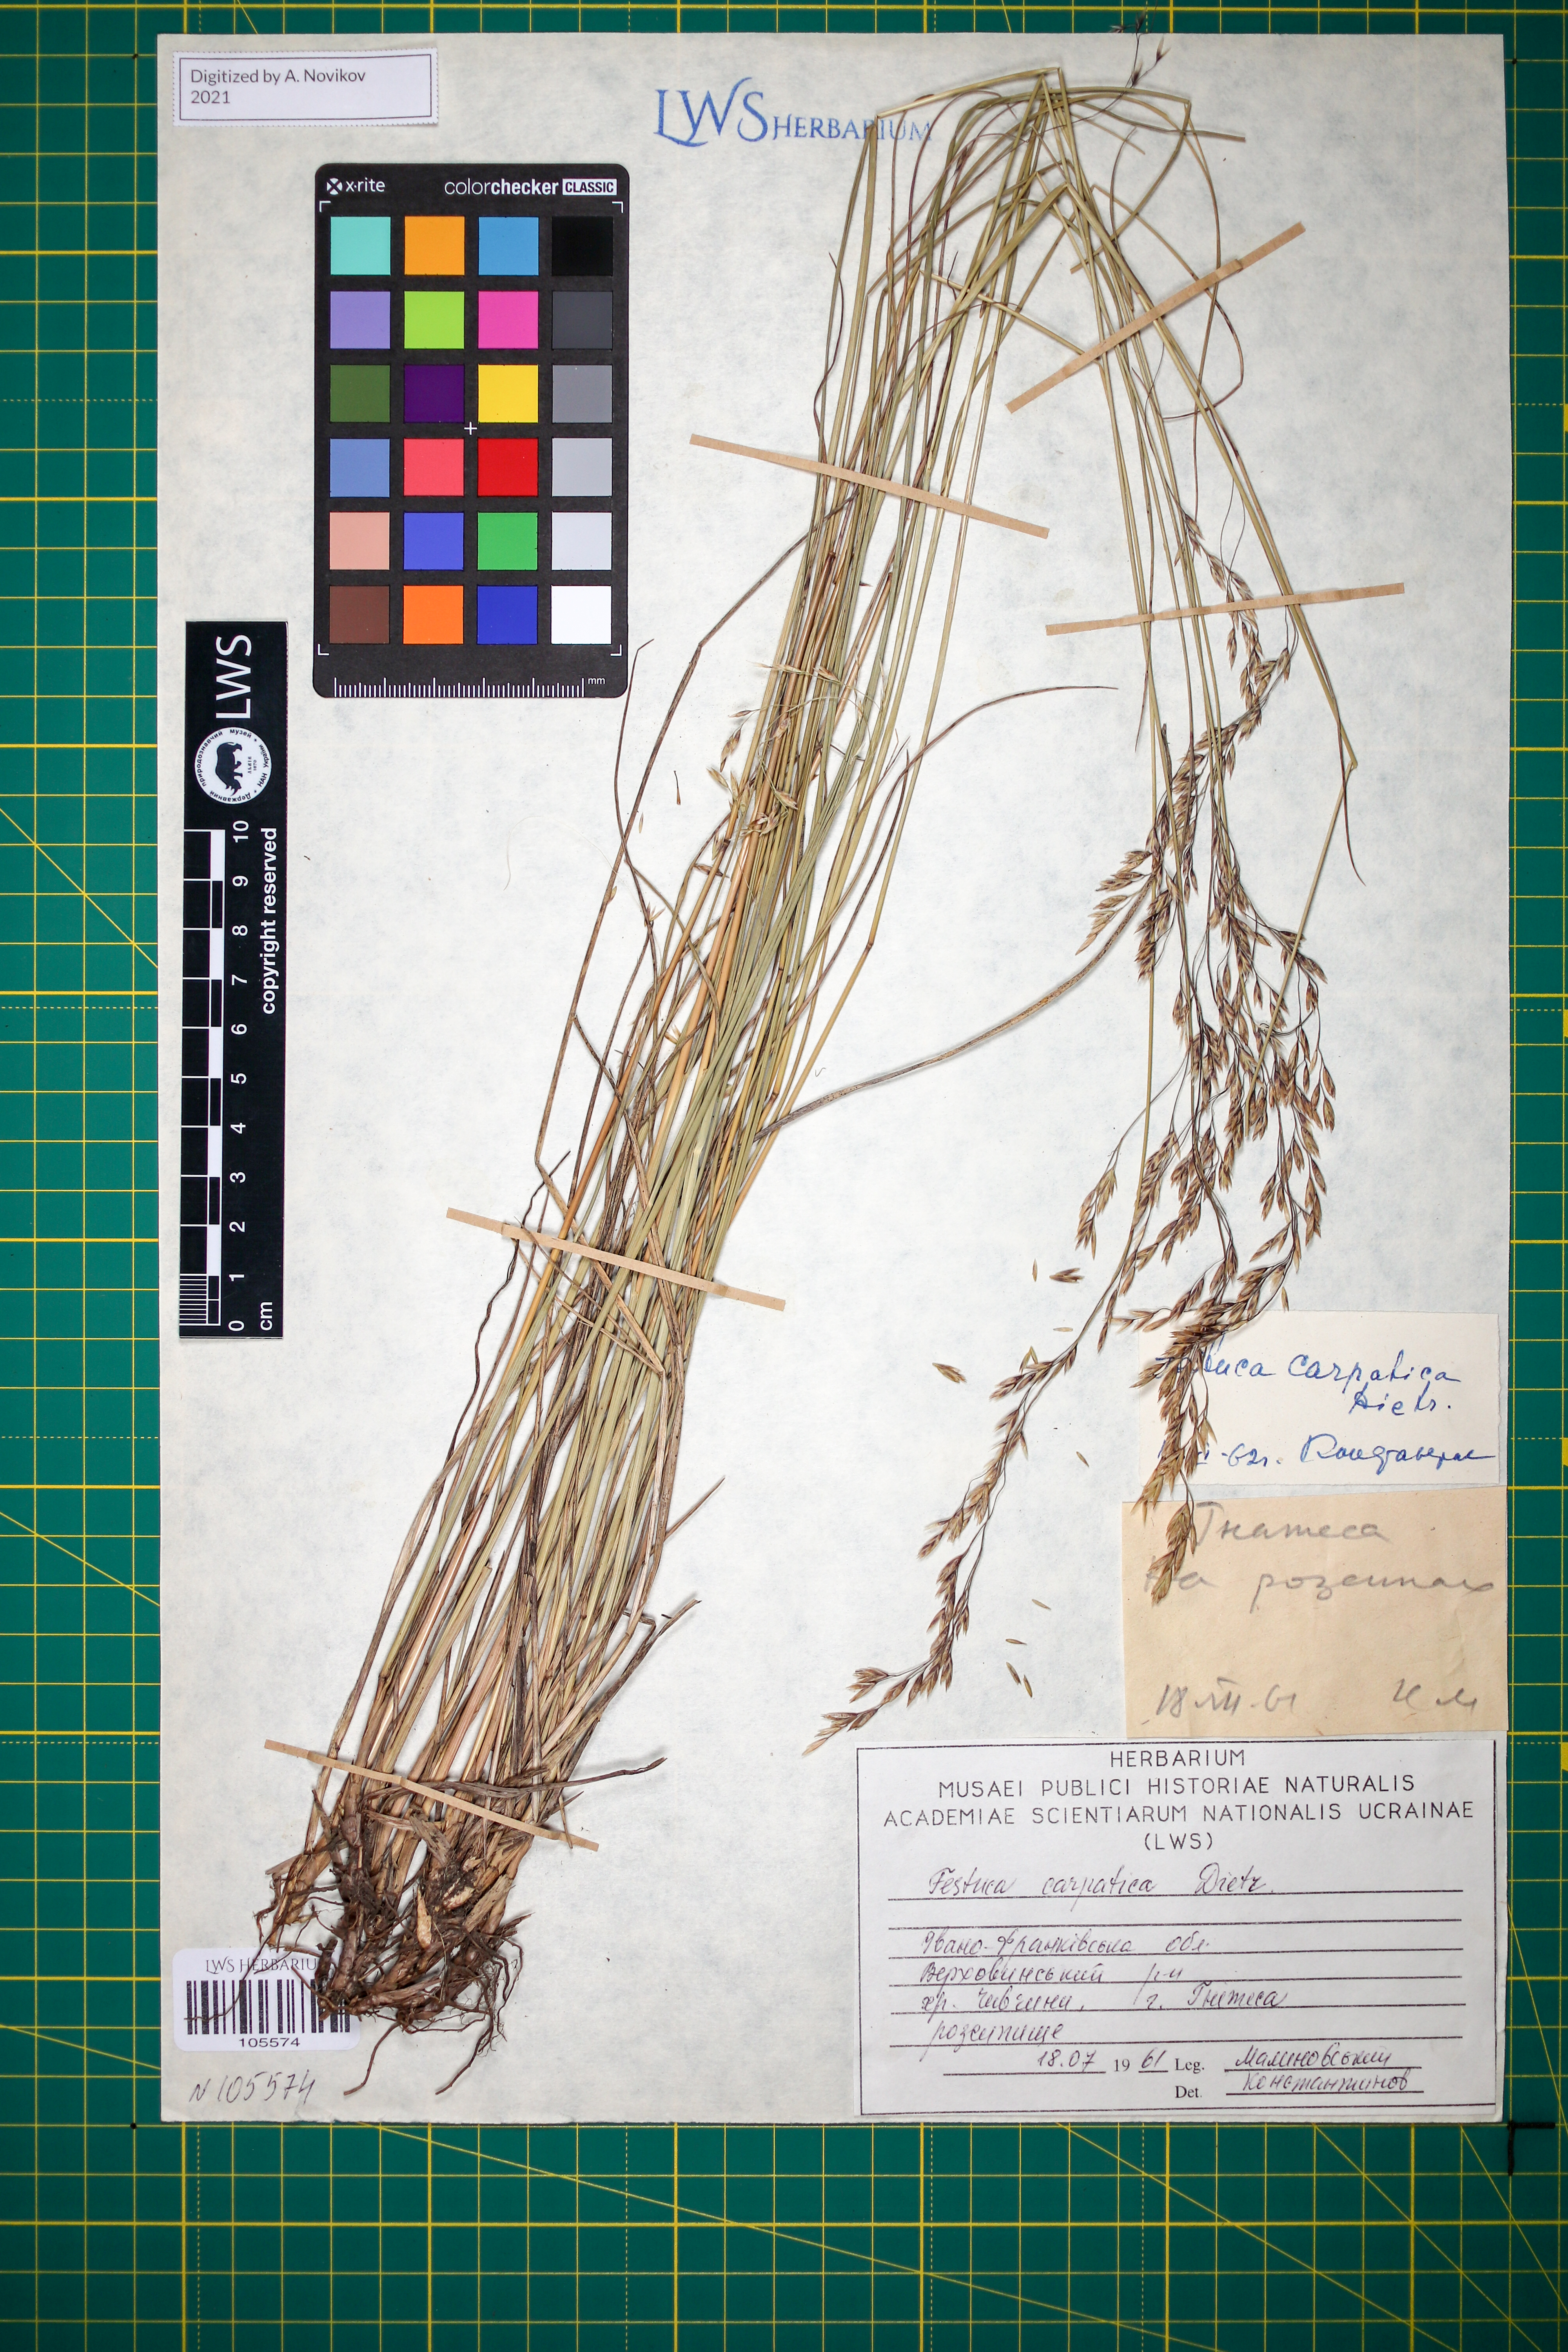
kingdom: Plantae
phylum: Tracheophyta
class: Liliopsida
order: Poales
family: Poaceae
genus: Festuca
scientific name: Festuca carpatica
